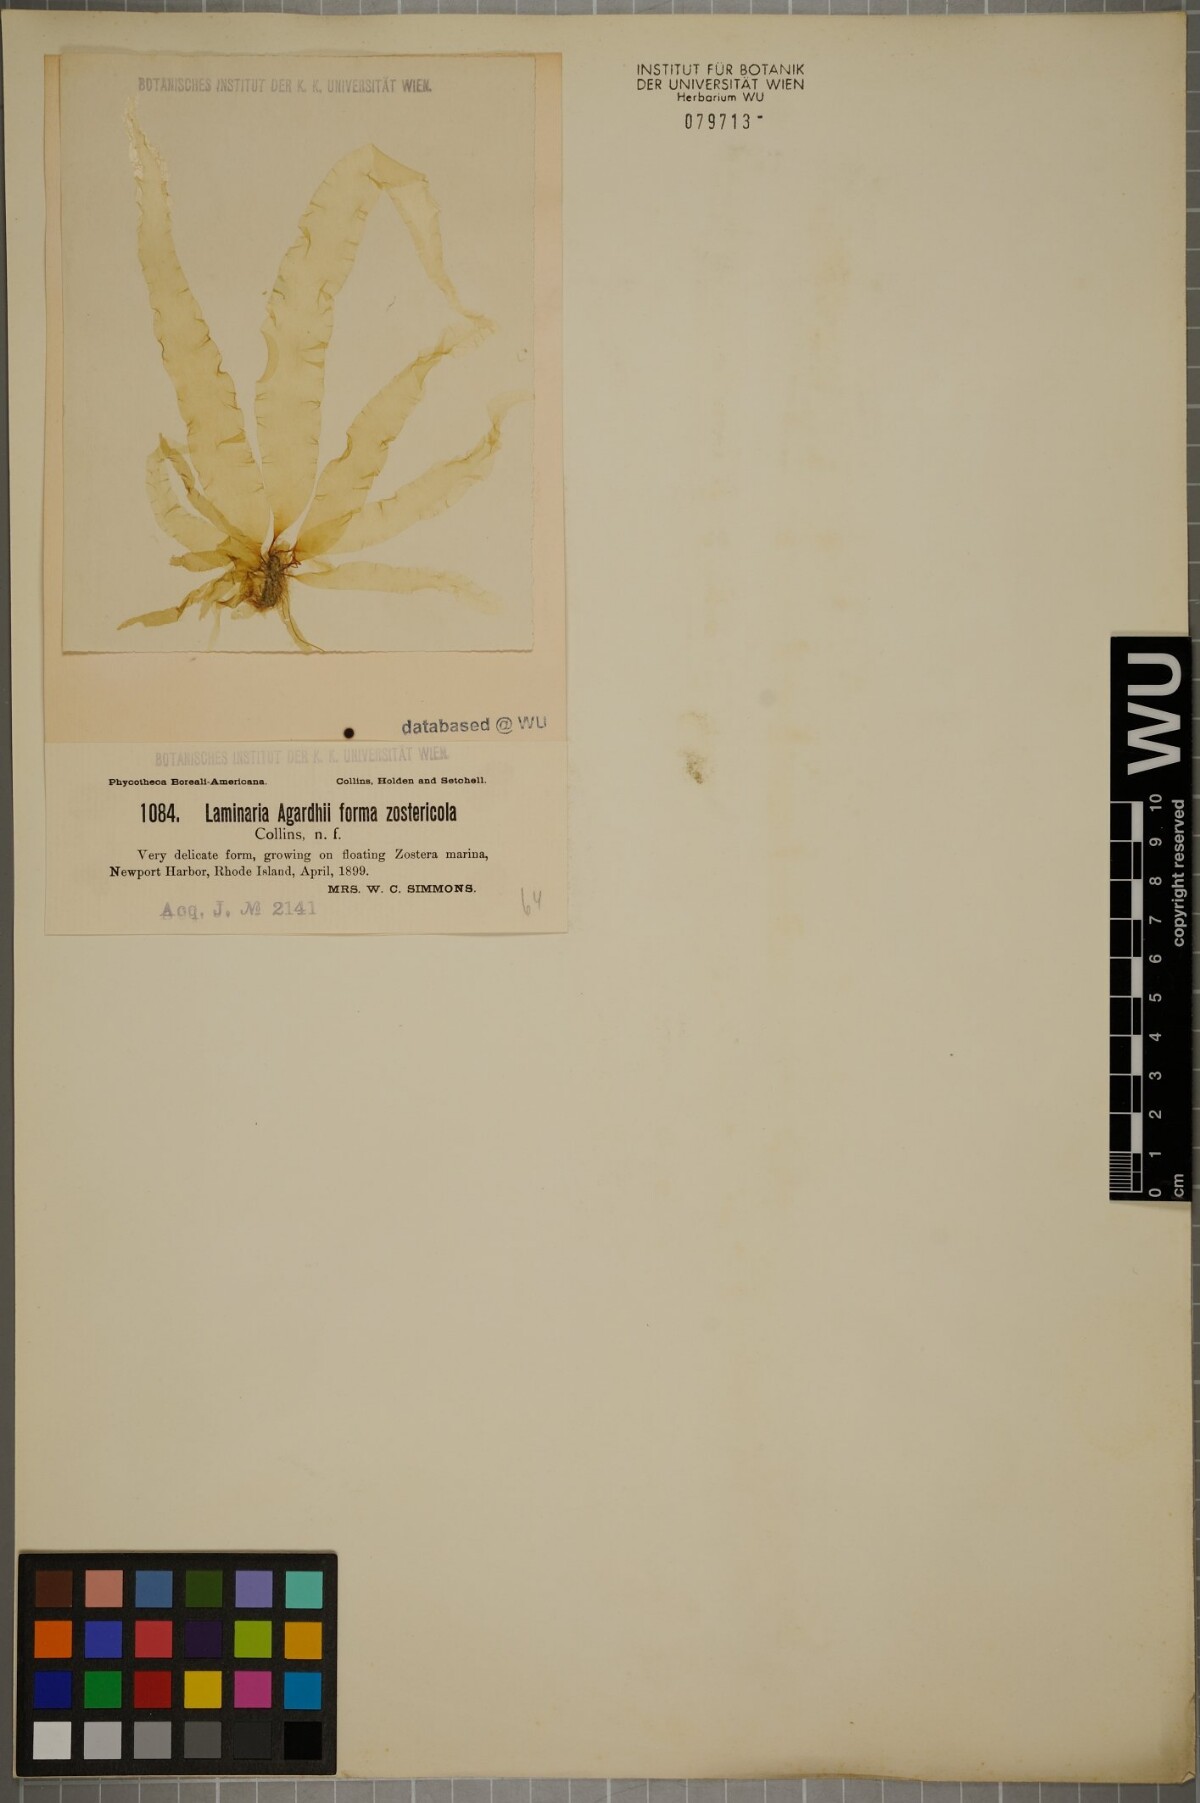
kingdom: Chromista
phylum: Ochrophyta
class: Phaeophyceae
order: Laminariales
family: Laminariaceae
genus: Saccharina
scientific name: Saccharina latissima
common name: Poor man's weather glass
